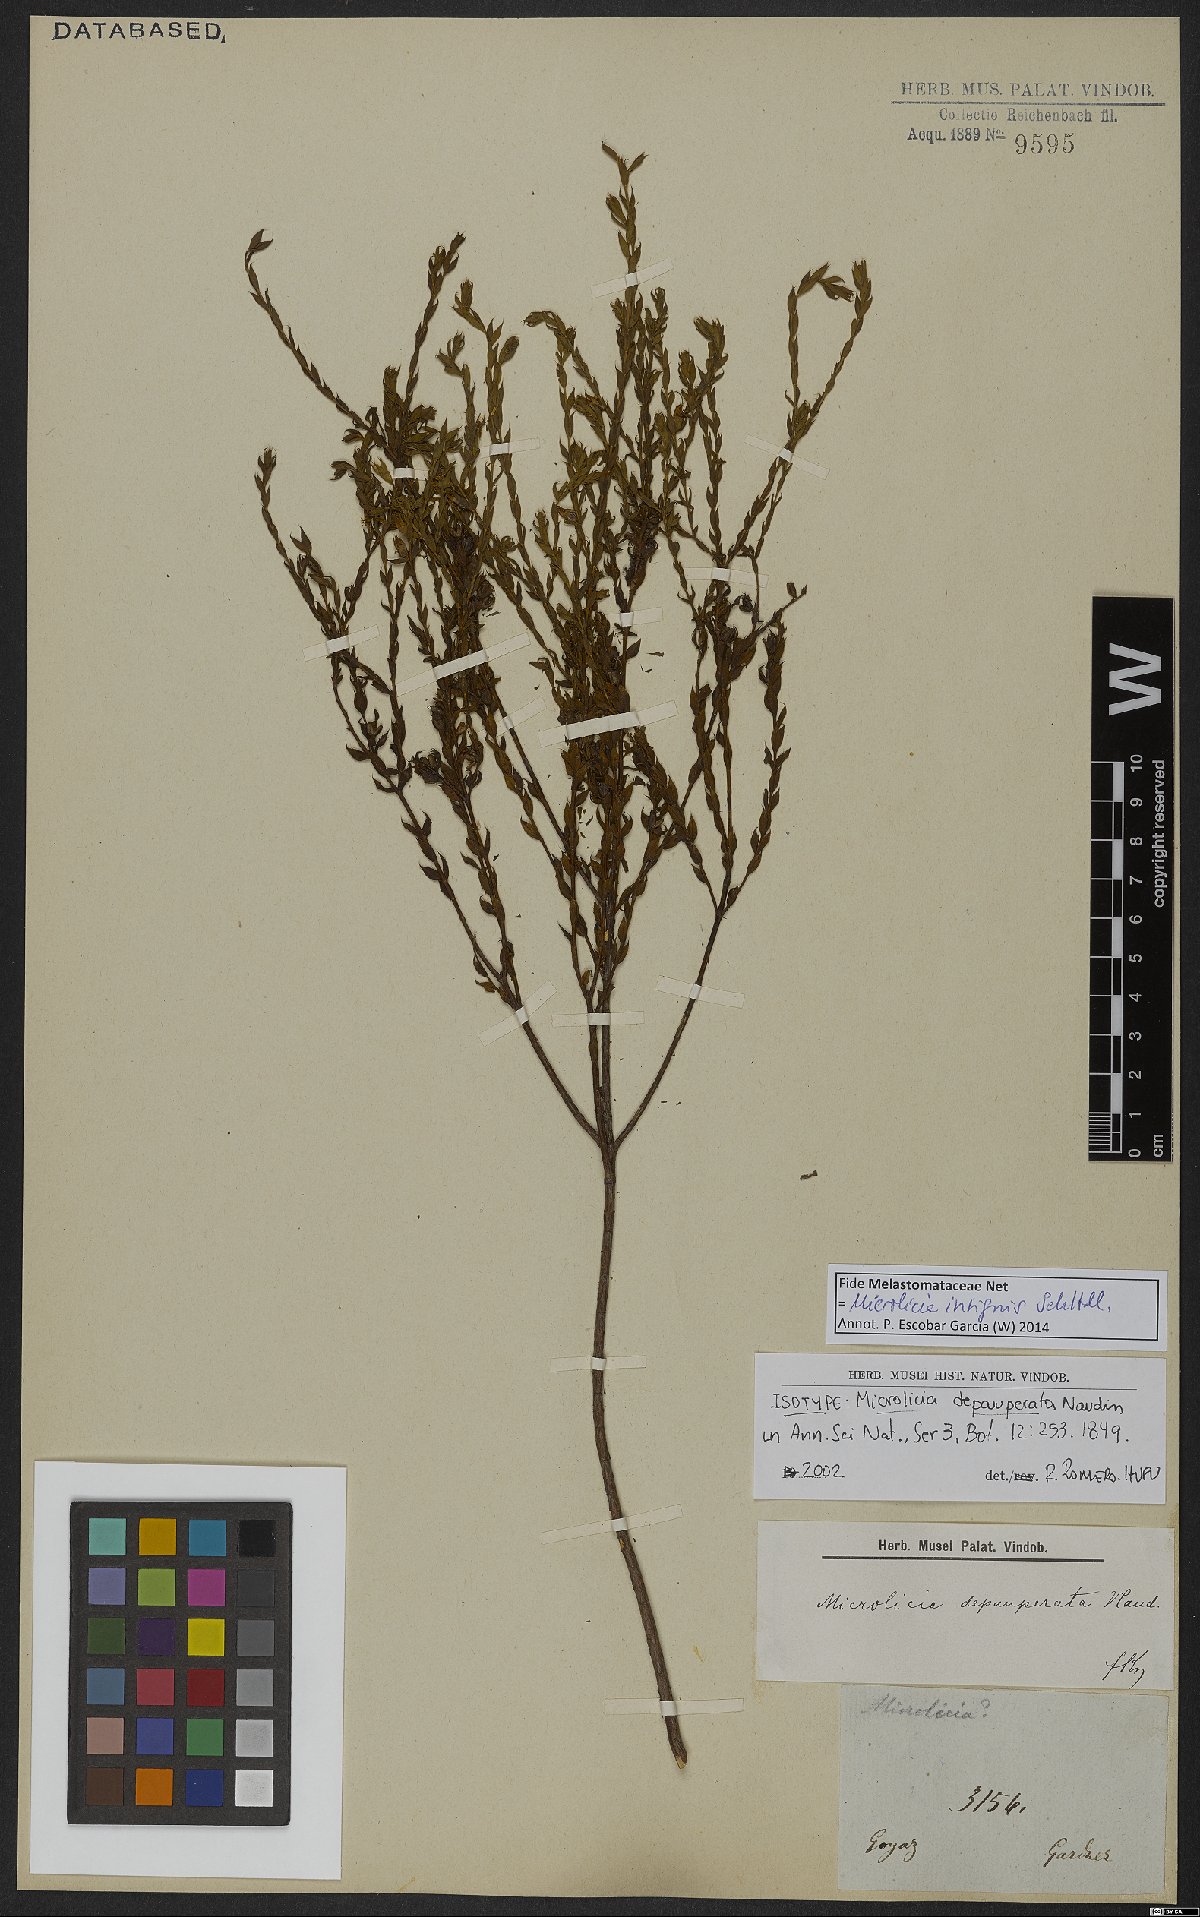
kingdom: Plantae
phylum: Tracheophyta
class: Magnoliopsida
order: Myrtales
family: Melastomataceae
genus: Microlicia
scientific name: Microlicia insignis
